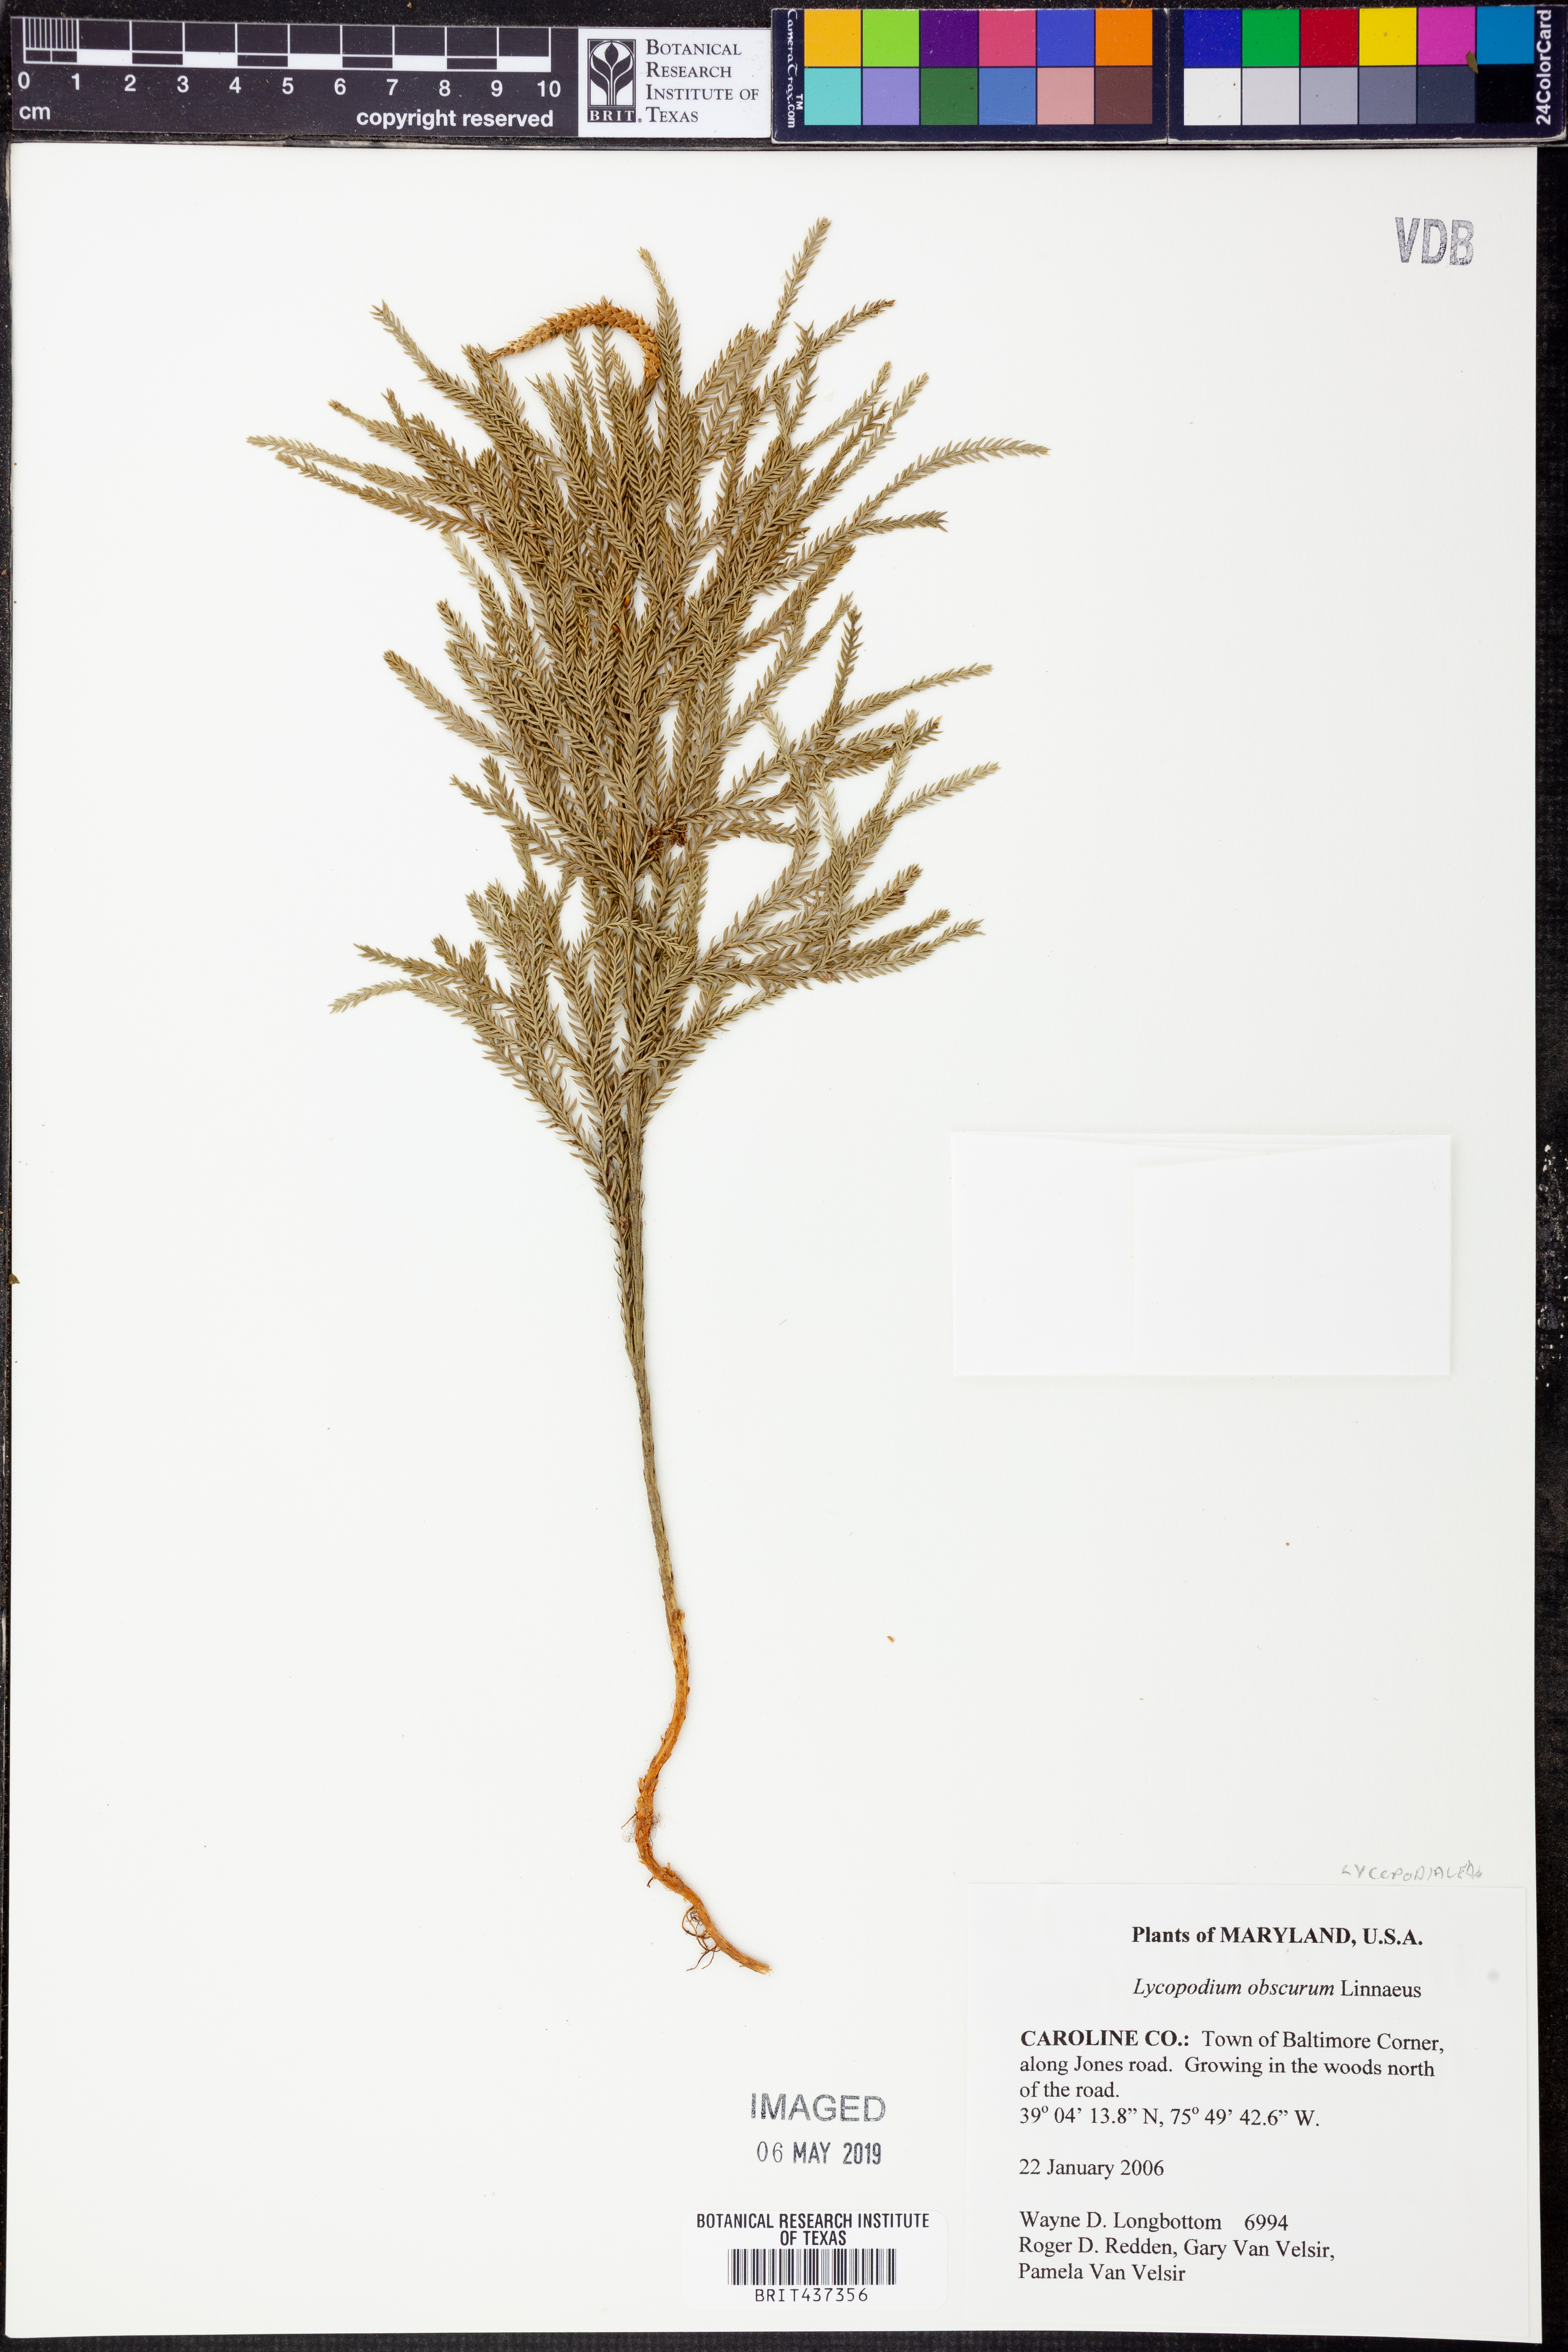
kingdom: Plantae
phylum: Tracheophyta
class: Lycopodiopsida
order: Lycopodiales
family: Lycopodiaceae
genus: Dendrolycopodium
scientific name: Dendrolycopodium obscurum
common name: Common ground-pine
